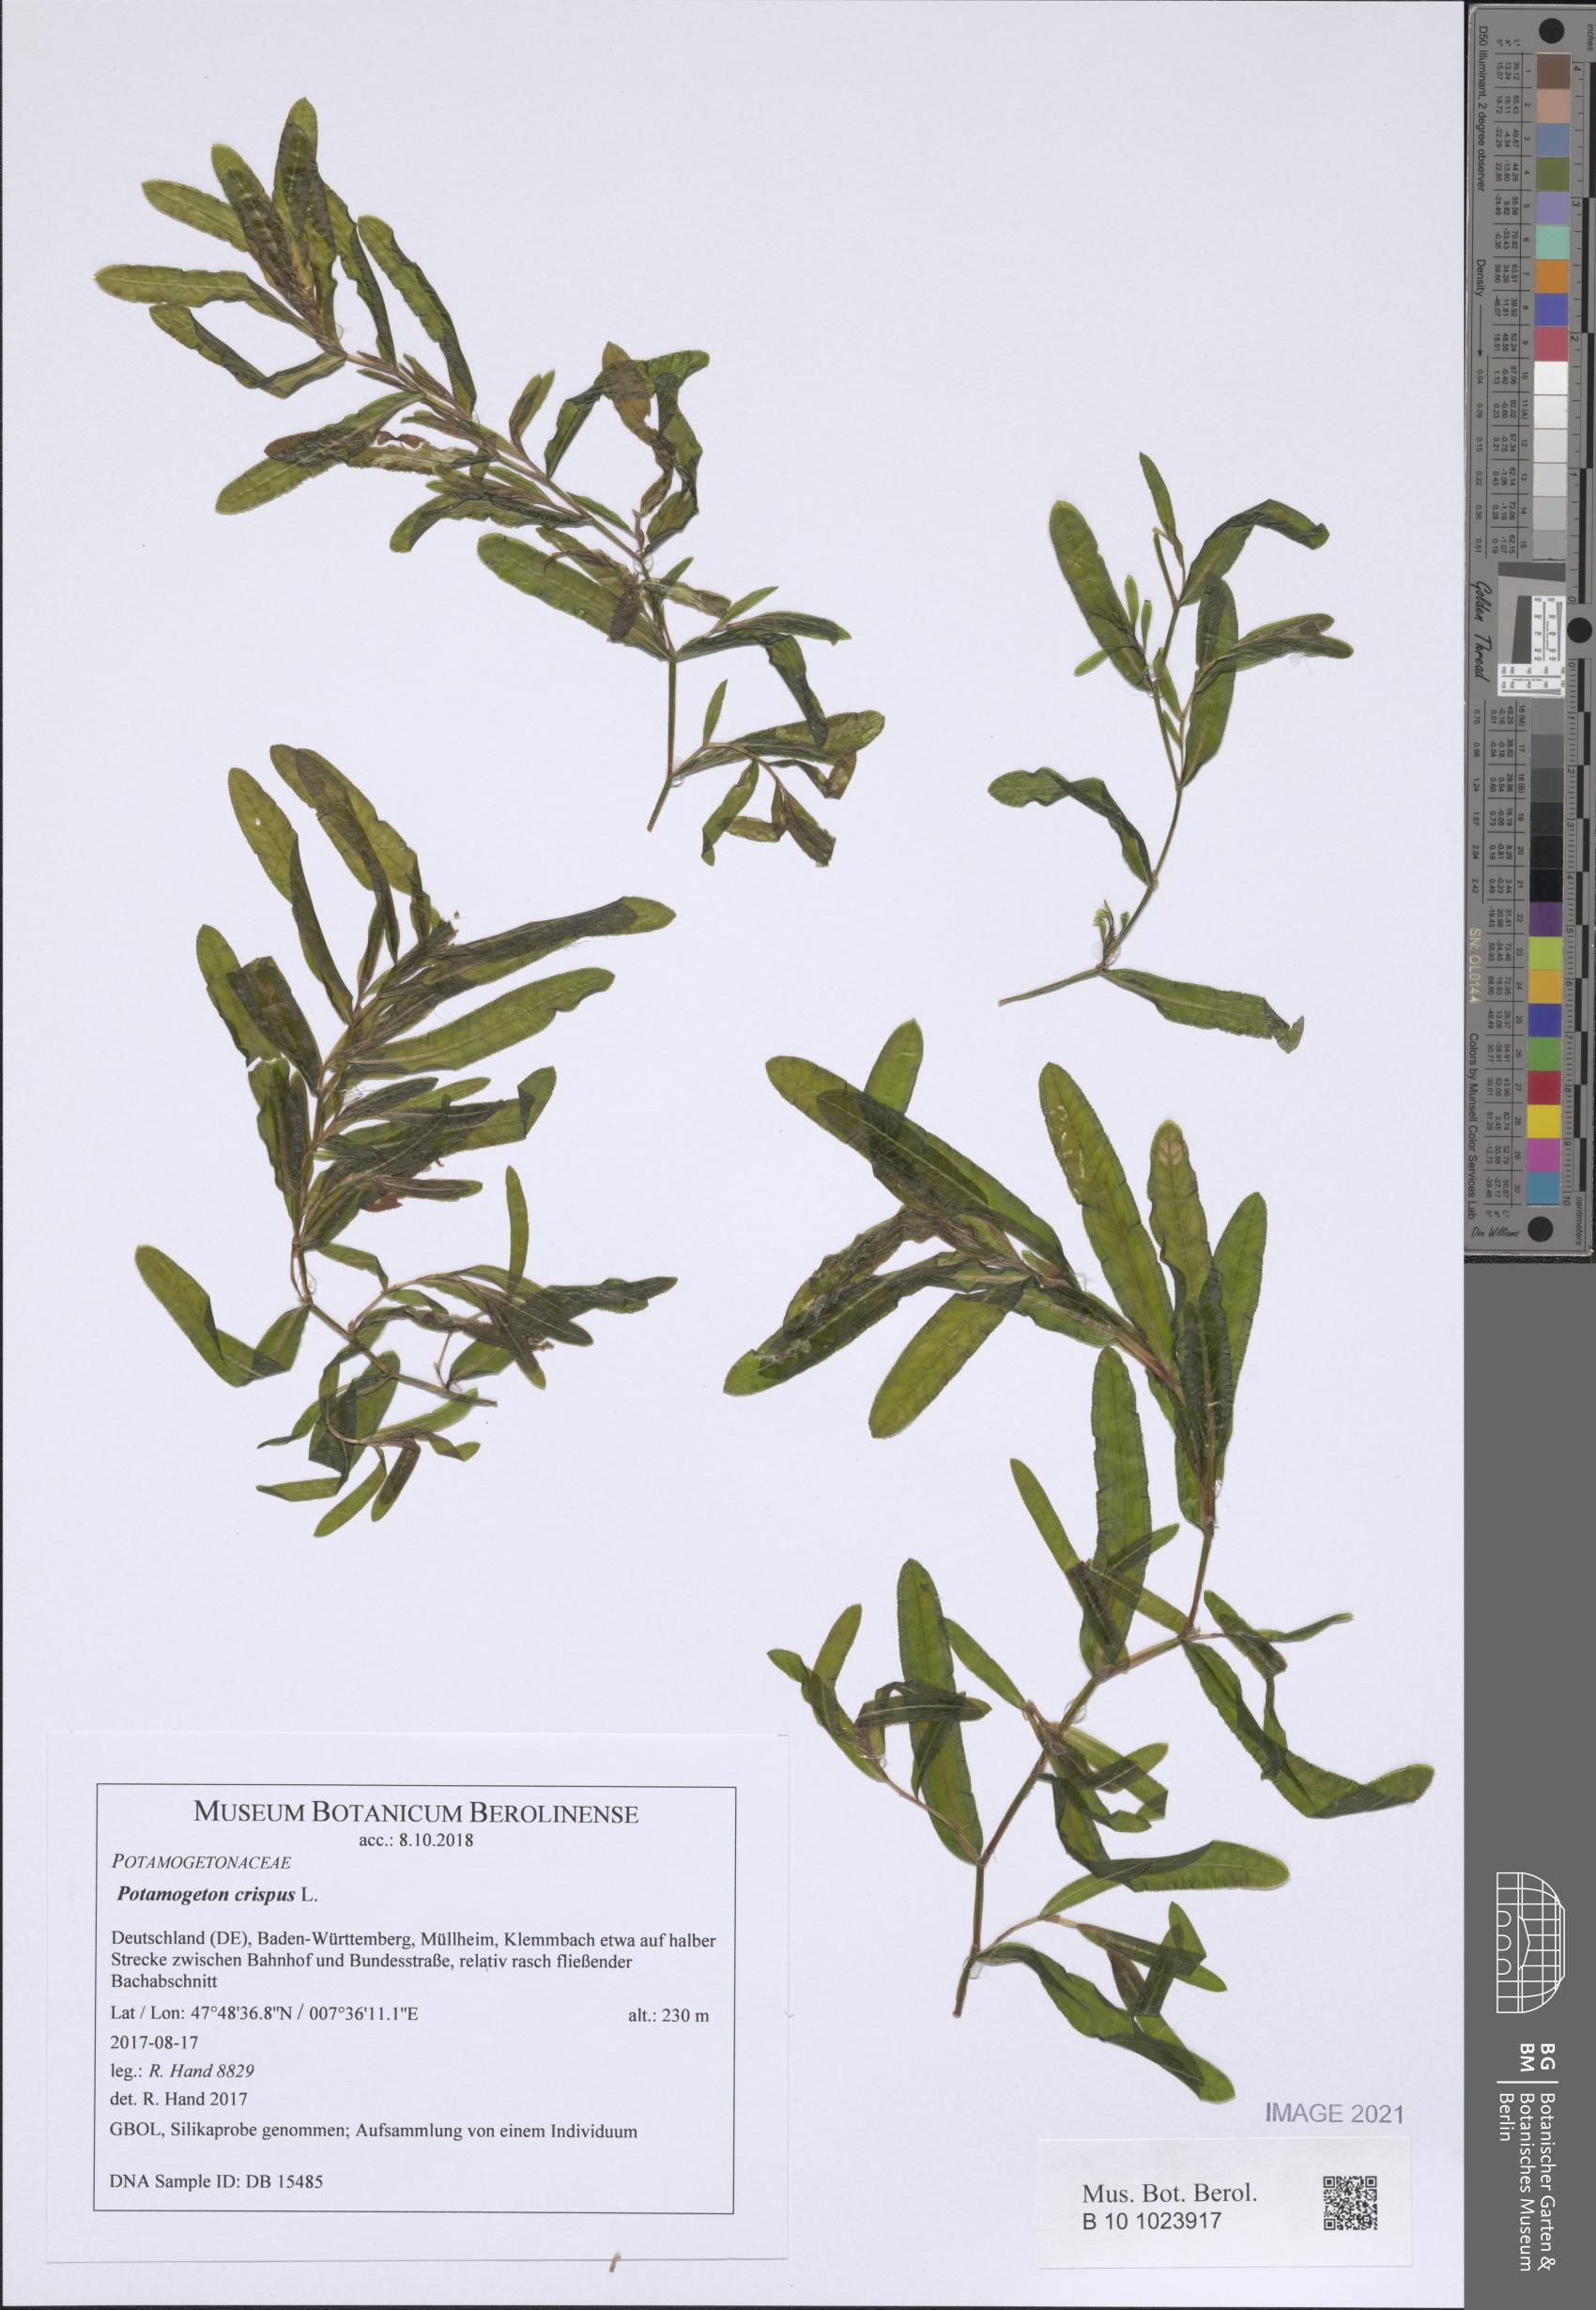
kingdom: Plantae
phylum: Tracheophyta
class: Liliopsida
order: Alismatales
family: Potamogetonaceae
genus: Potamogeton
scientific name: Potamogeton crispus
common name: Curled pondweed
